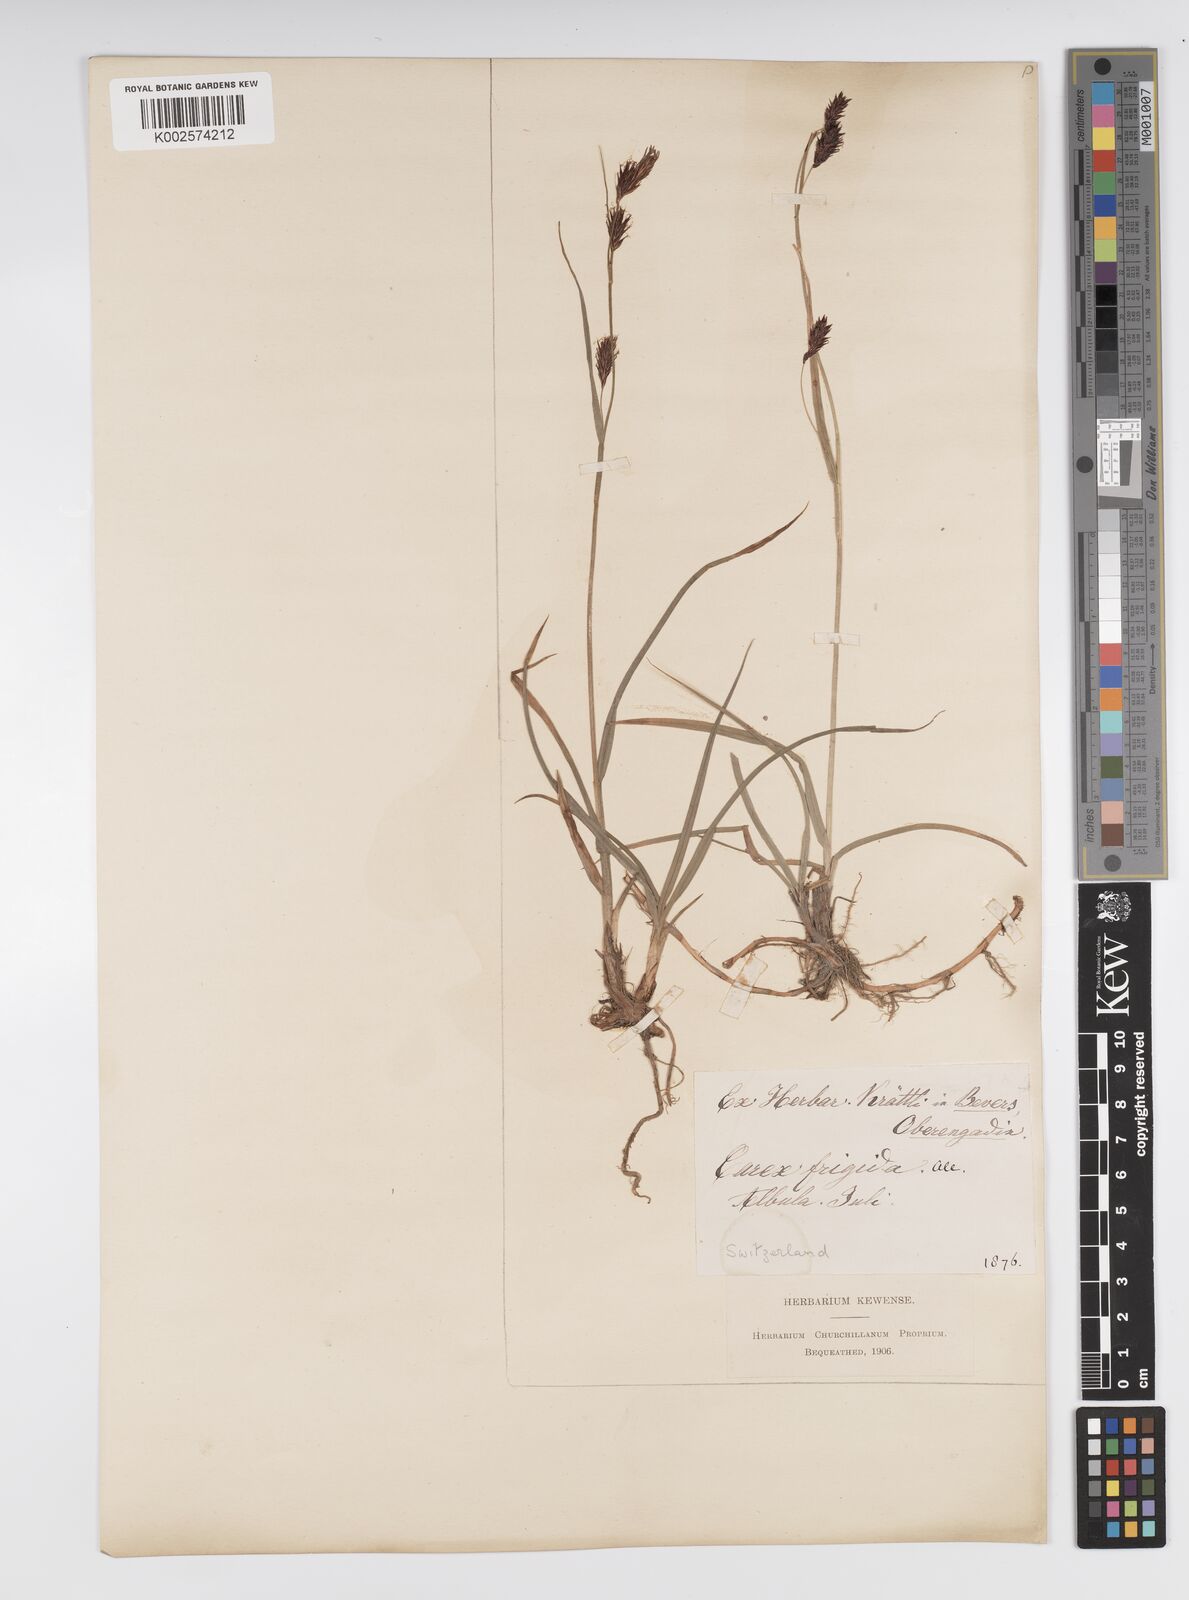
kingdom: Plantae
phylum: Tracheophyta
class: Liliopsida
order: Poales
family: Cyperaceae
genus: Carex
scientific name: Carex frigida
